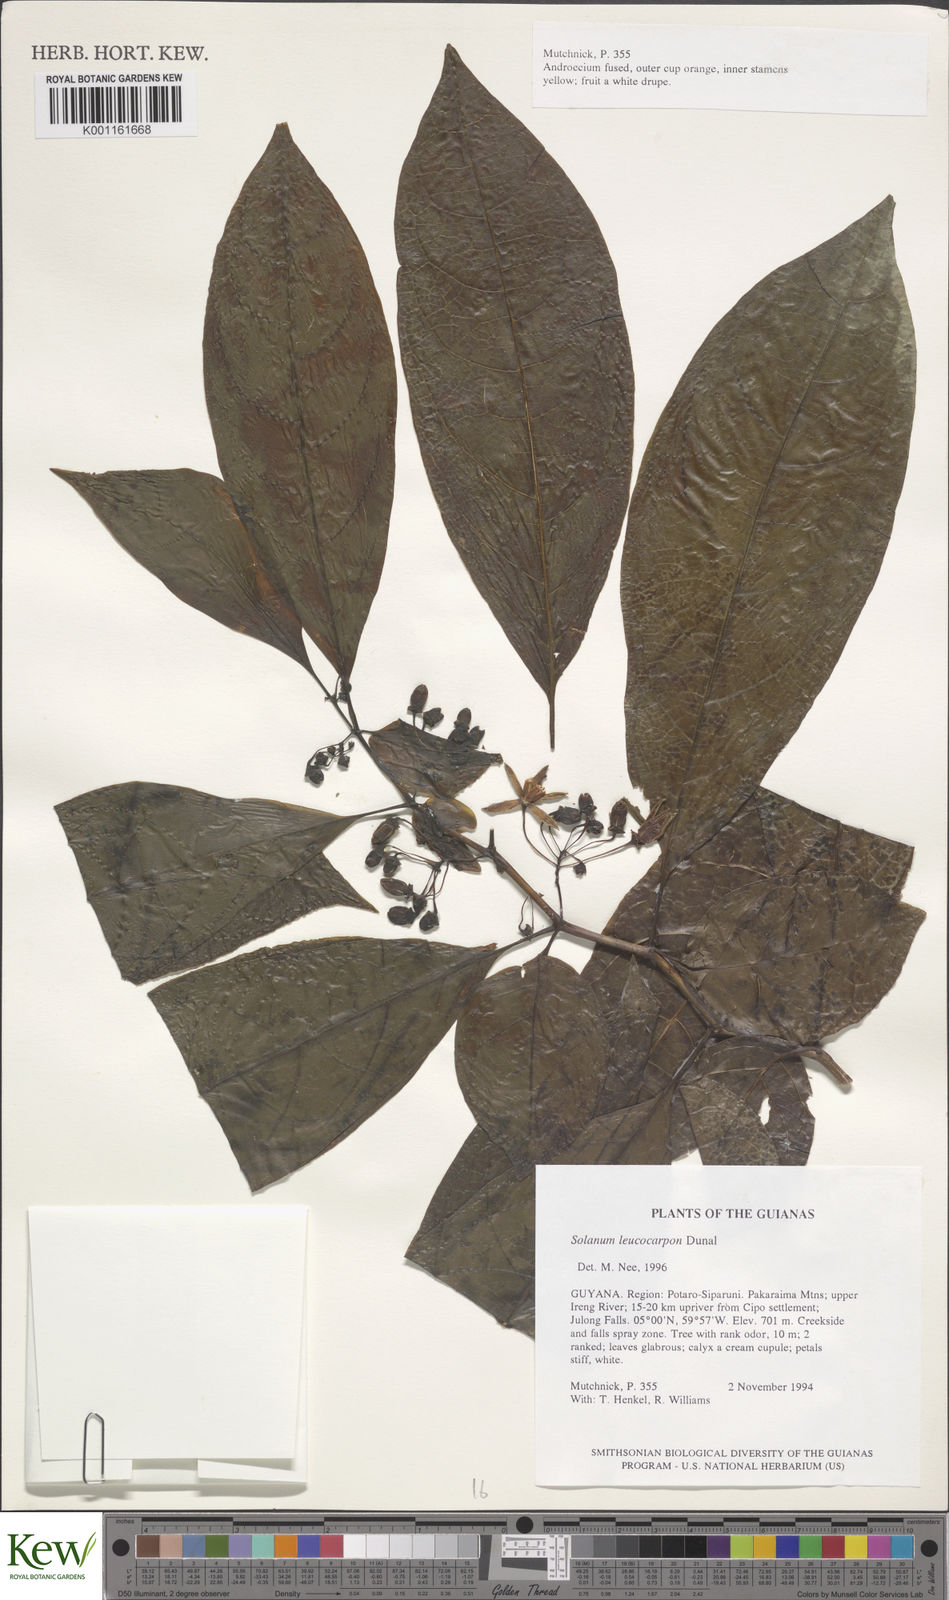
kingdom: Plantae
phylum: Tracheophyta
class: Magnoliopsida
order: Solanales
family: Solanaceae
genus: Solanum
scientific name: Solanum leucocarpon
